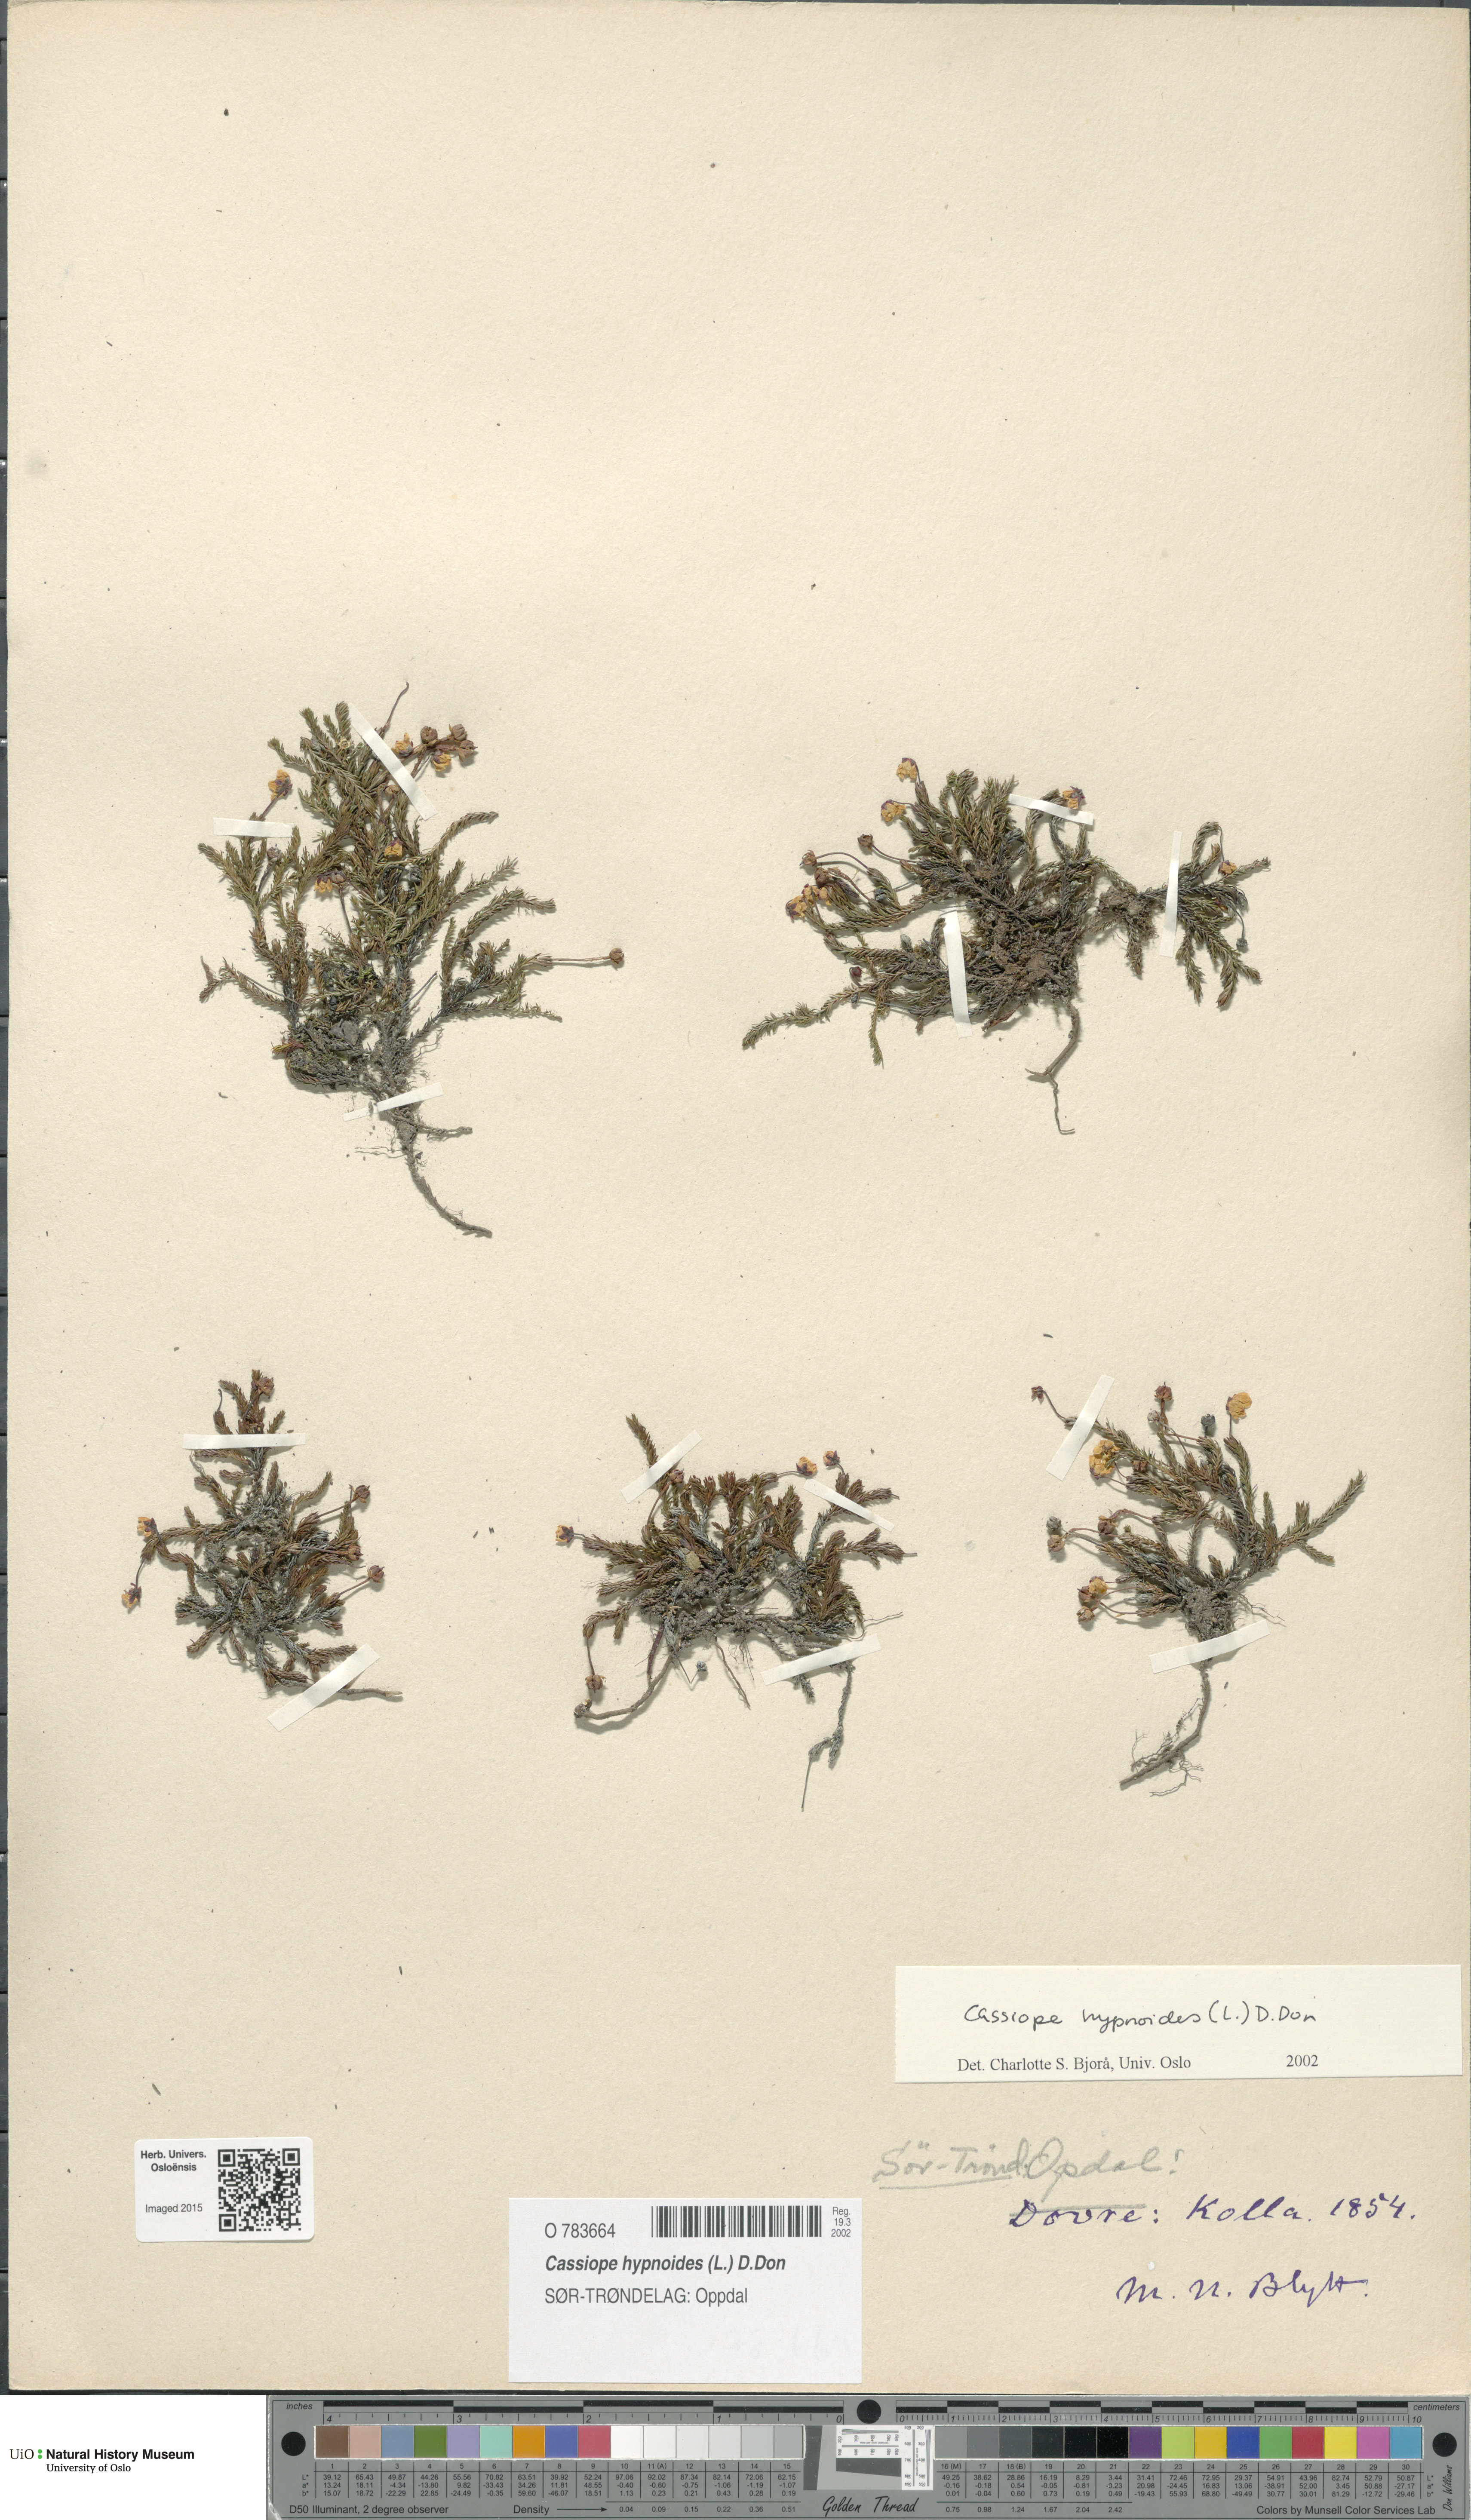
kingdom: Plantae
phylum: Tracheophyta
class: Magnoliopsida
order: Ericales
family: Ericaceae
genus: Harrimanella
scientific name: Harrimanella hypnoides
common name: Moss bell heather
